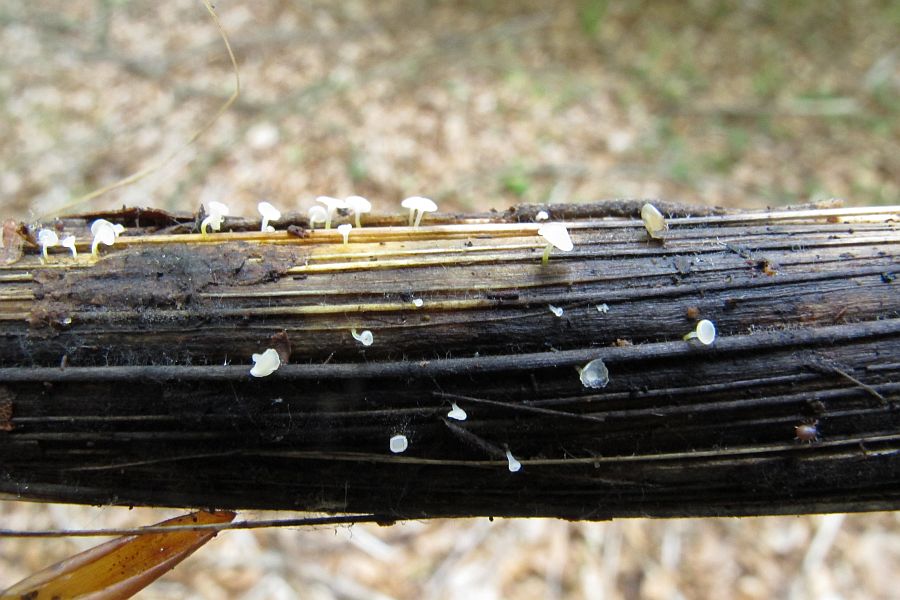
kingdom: Fungi
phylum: Ascomycota
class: Leotiomycetes
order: Helotiales
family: Helotiaceae
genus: Cyathicula
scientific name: Cyathicula cyathoidea
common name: pokal-stilkskive
